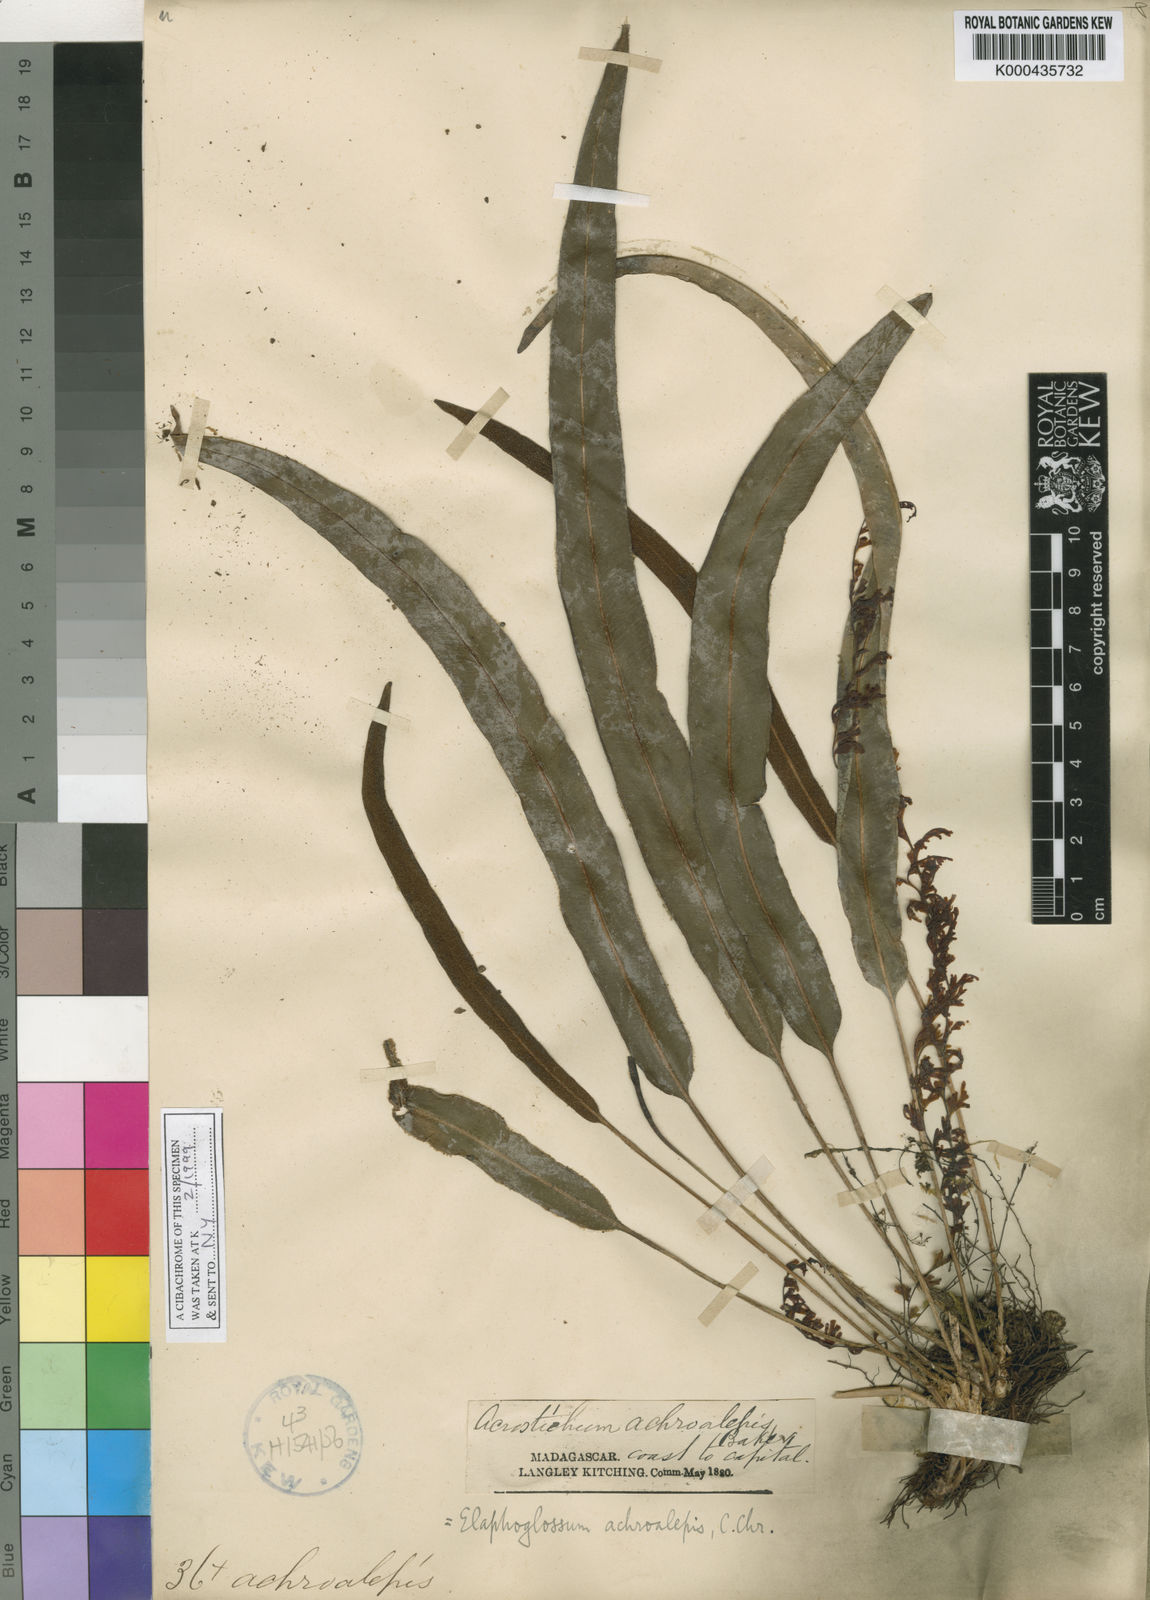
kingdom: Plantae
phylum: Tracheophyta
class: Polypodiopsida
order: Polypodiales
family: Dryopteridaceae
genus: Elaphoglossum
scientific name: Elaphoglossum achroalepis
